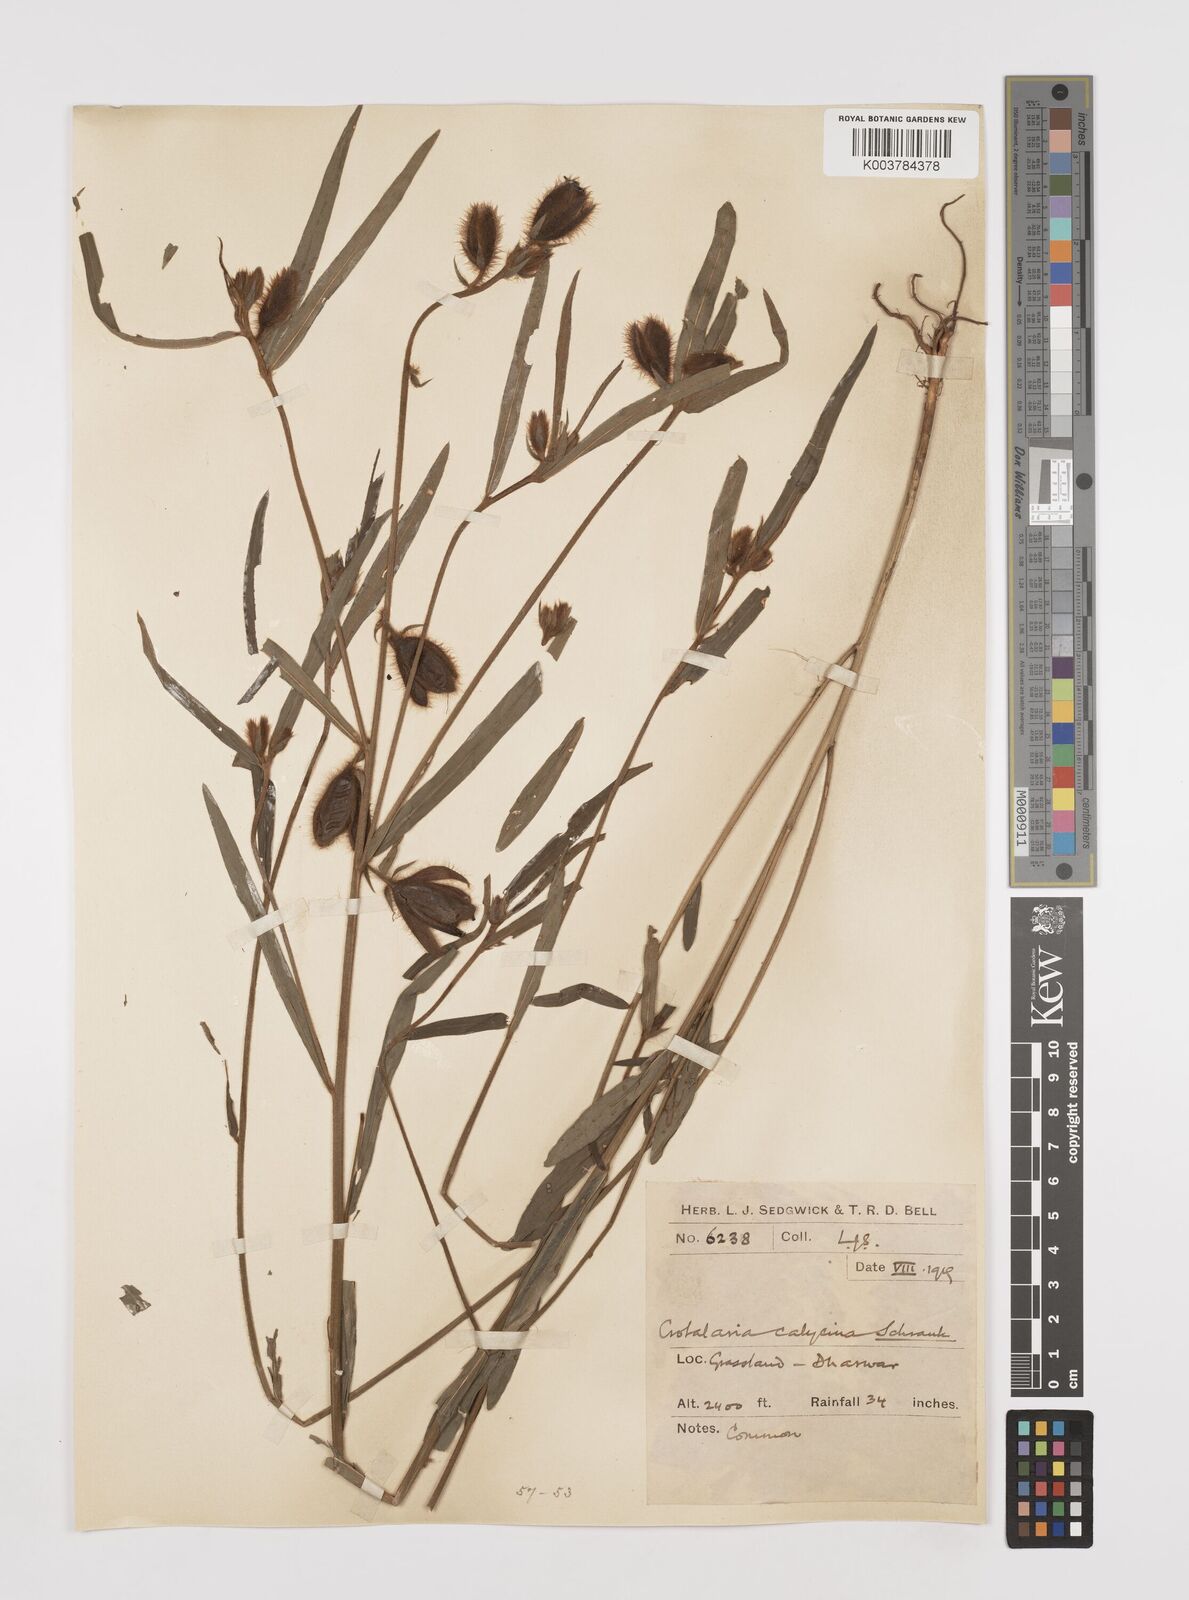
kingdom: Plantae
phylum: Tracheophyta
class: Magnoliopsida
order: Fabales
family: Fabaceae
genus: Crotalaria
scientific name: Crotalaria calycina
